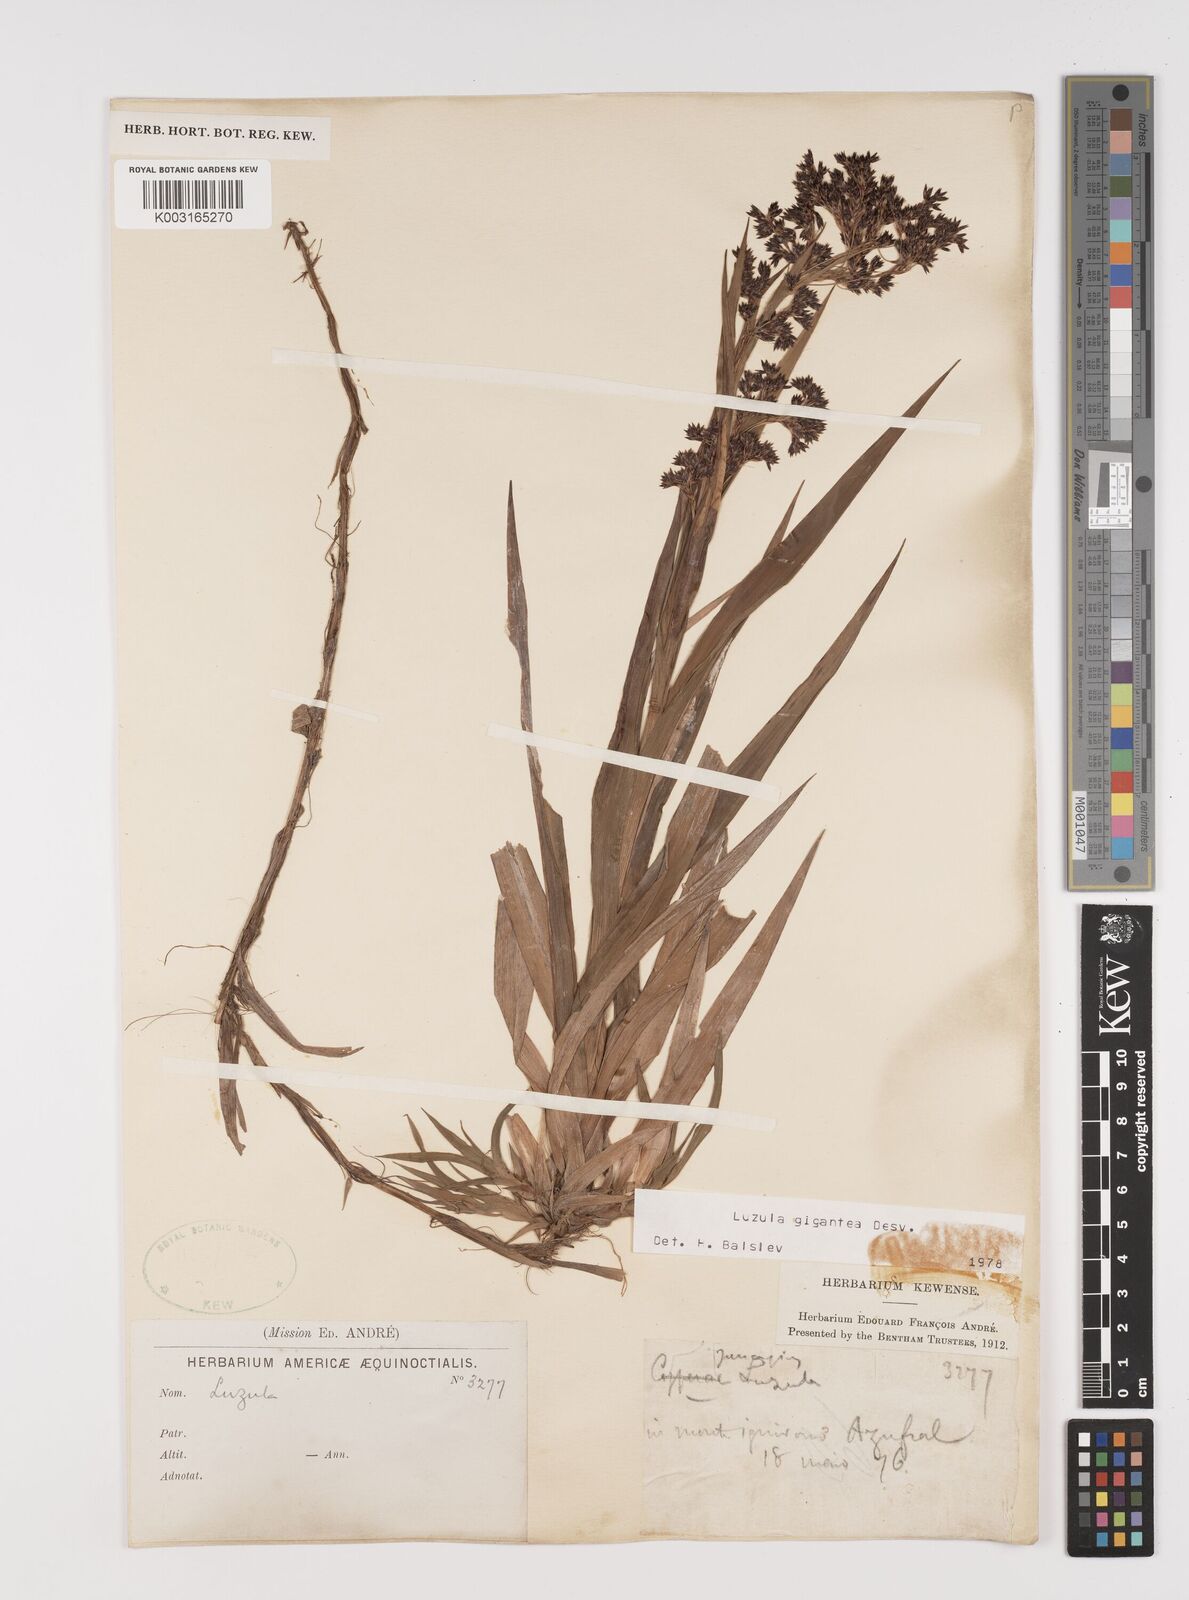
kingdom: Plantae
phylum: Tracheophyta
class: Liliopsida
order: Poales
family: Juncaceae
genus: Luzula
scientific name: Luzula gigantea
